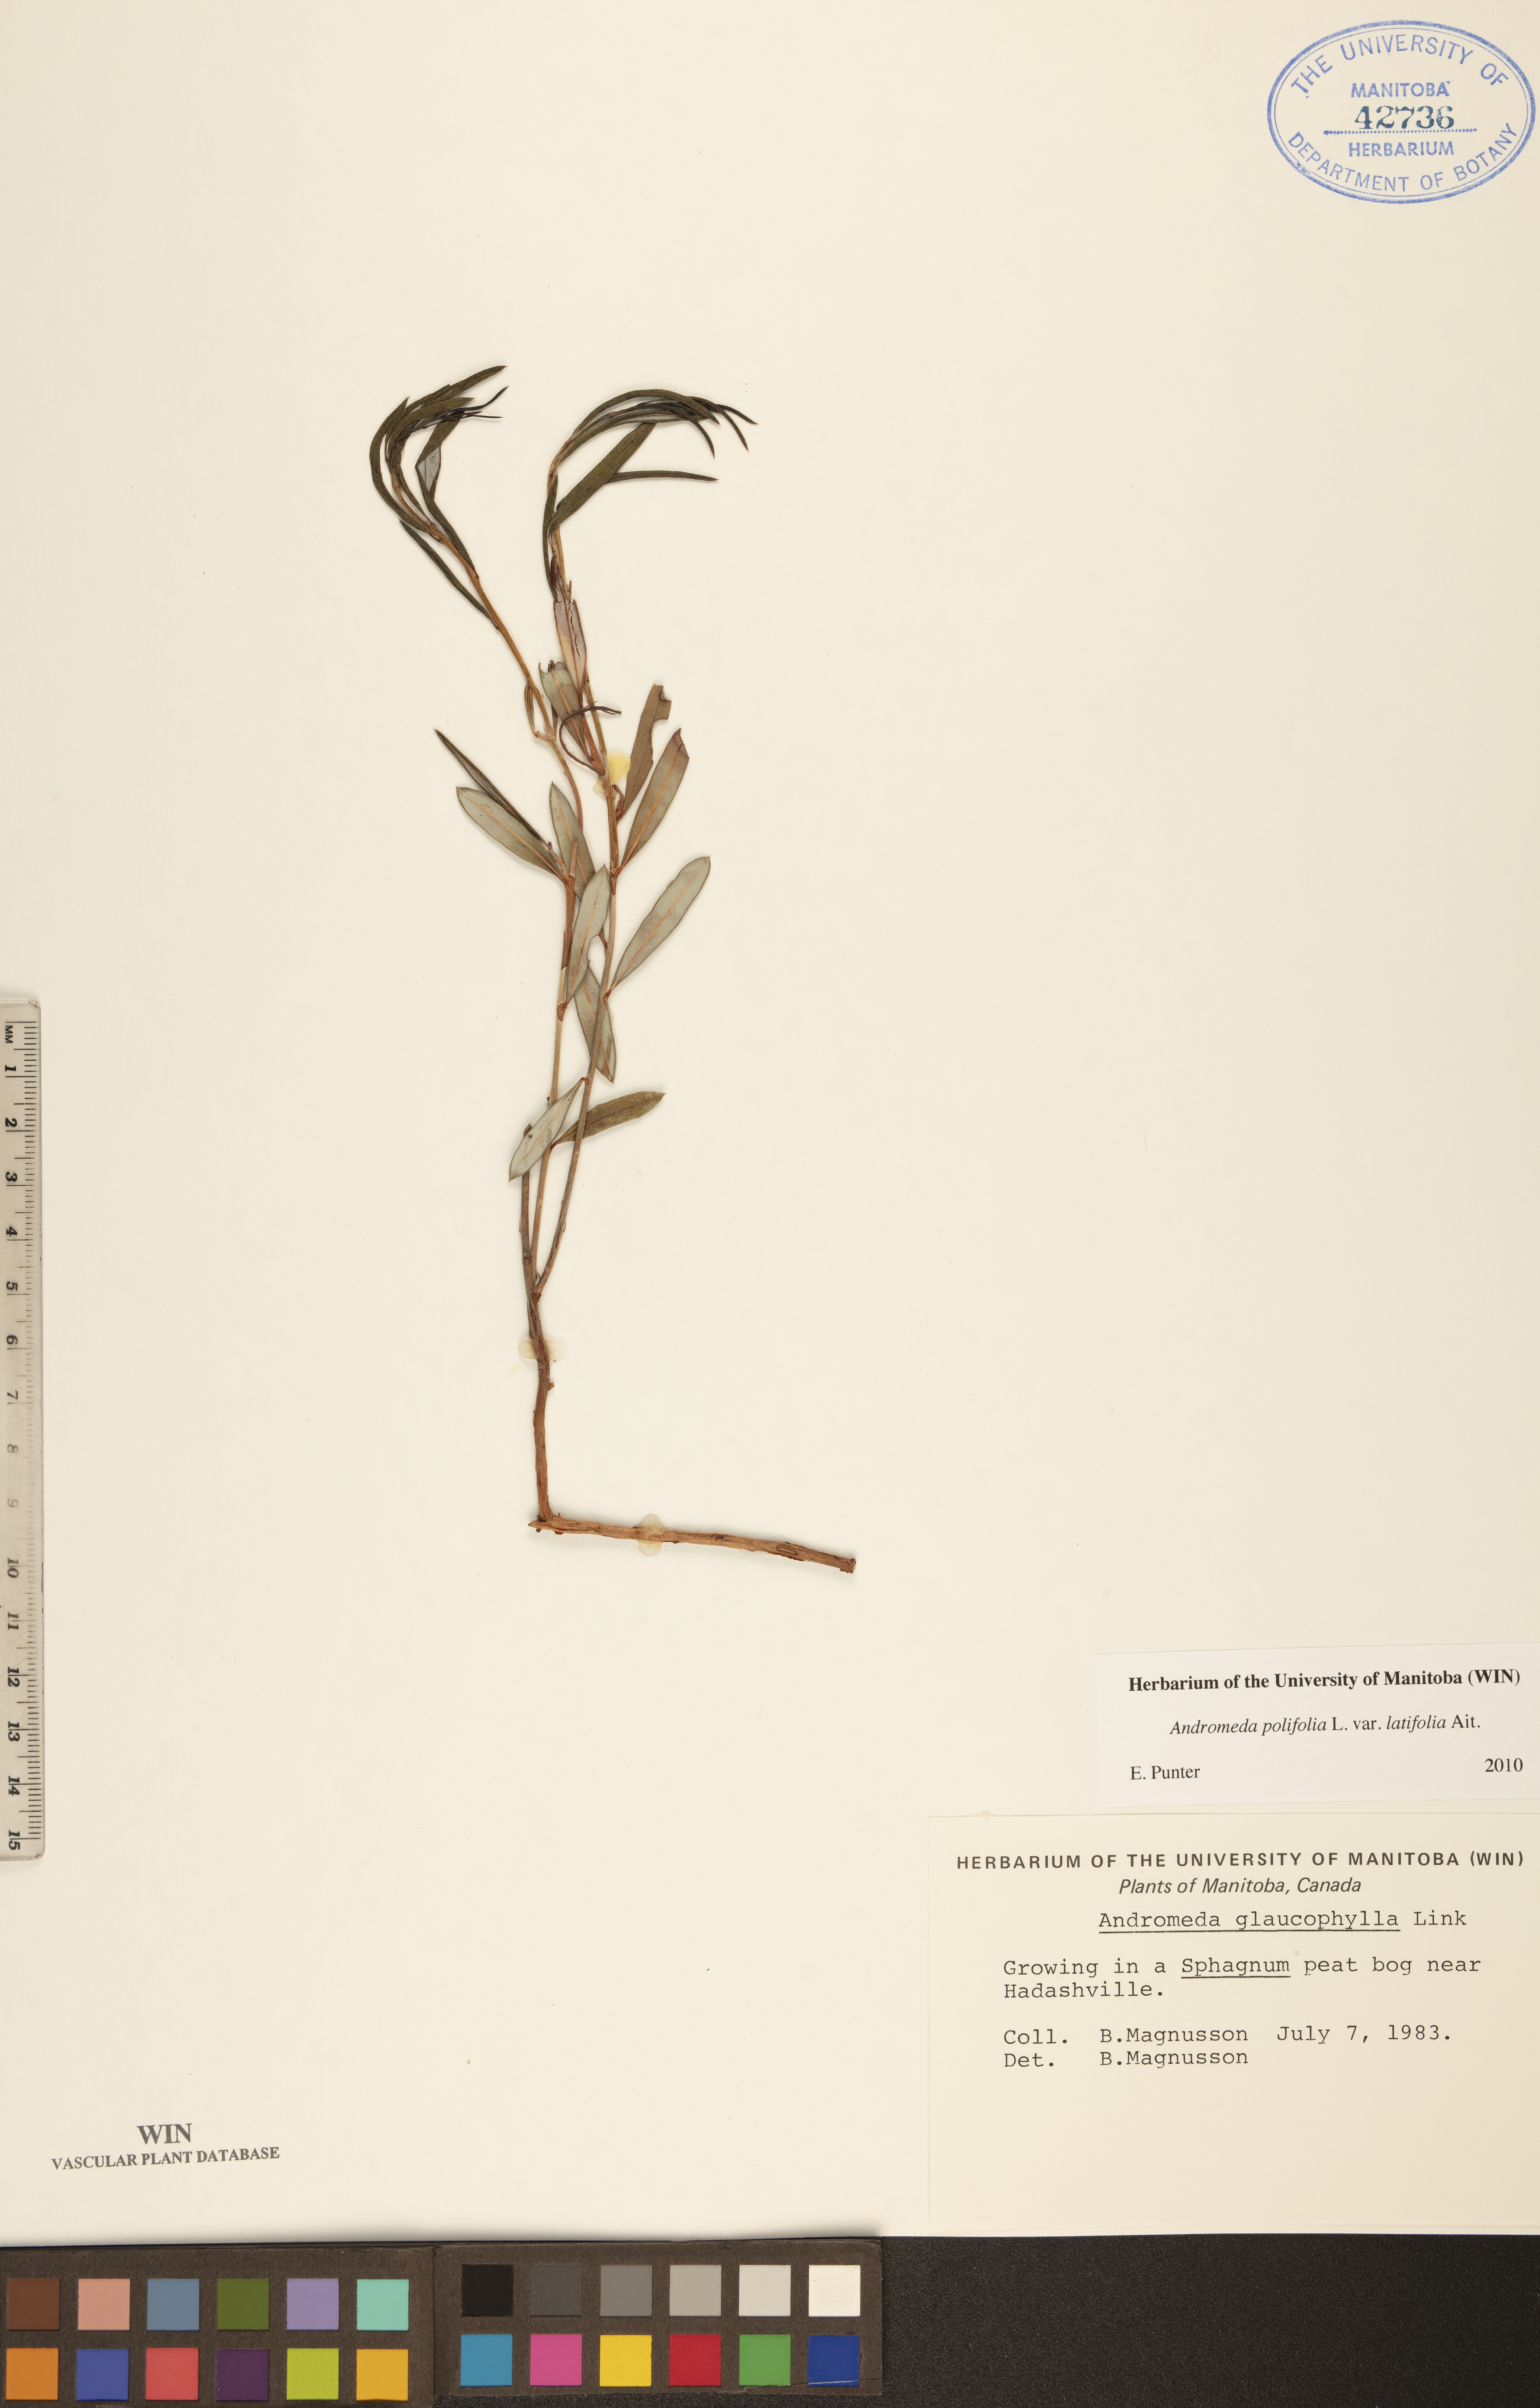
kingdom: Plantae
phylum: Tracheophyta
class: Magnoliopsida
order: Ericales
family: Ericaceae
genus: Andromeda
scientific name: Andromeda polifolia
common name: Bog-rosemary
